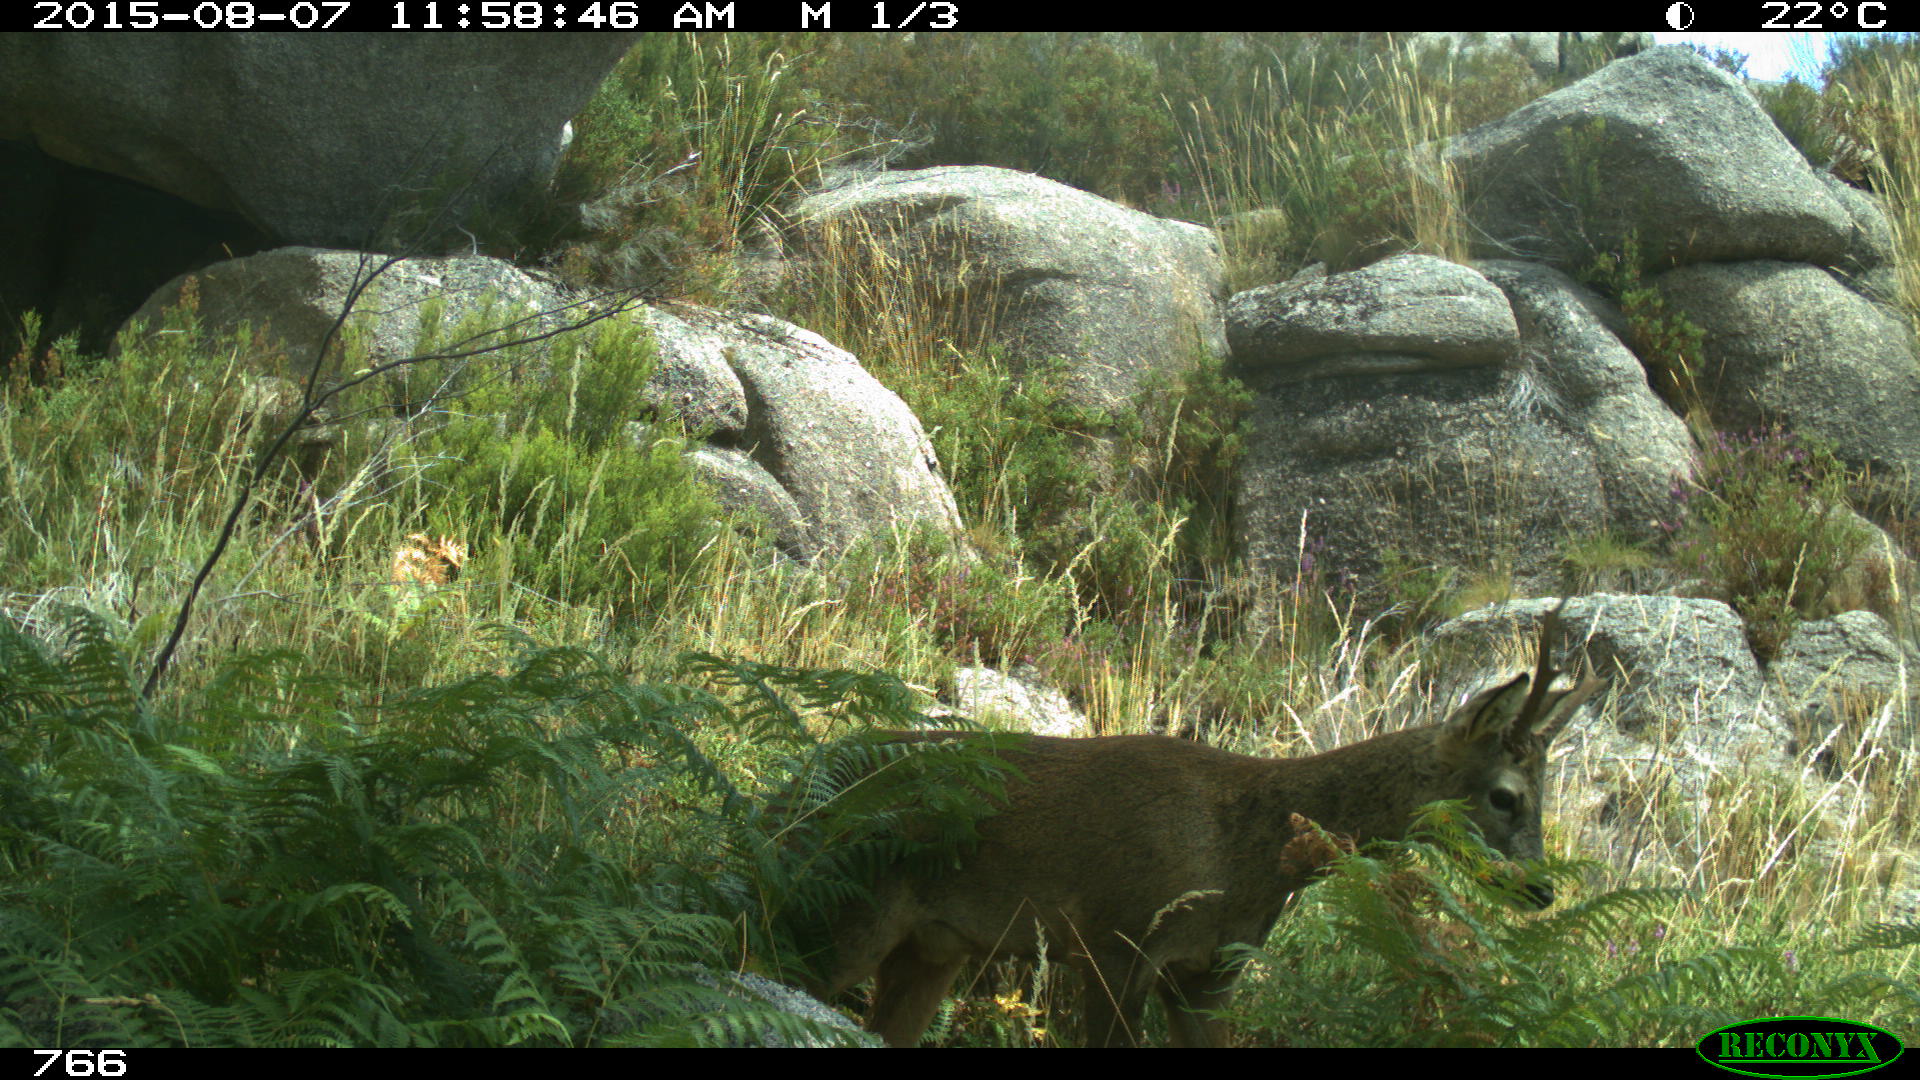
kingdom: Animalia
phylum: Chordata
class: Mammalia
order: Artiodactyla
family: Cervidae
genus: Capreolus
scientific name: Capreolus capreolus
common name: Western roe deer
